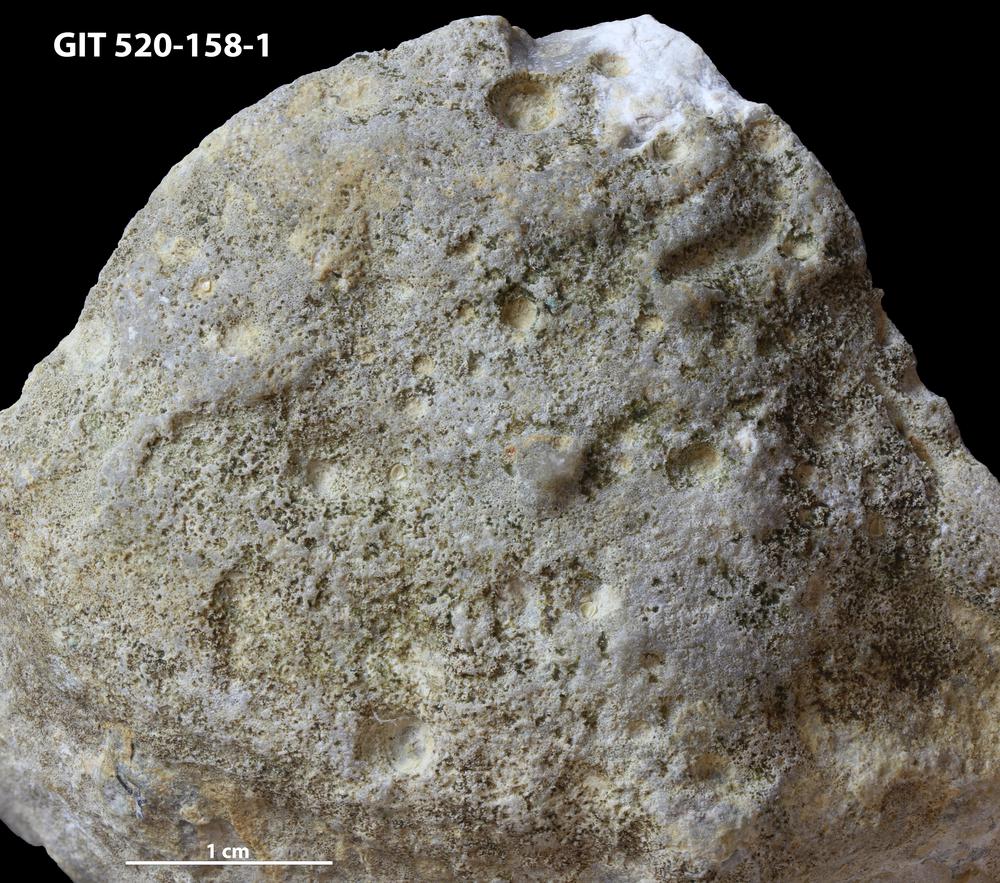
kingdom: Animalia
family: Cornulitidae
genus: Cornulites
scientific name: Cornulites
